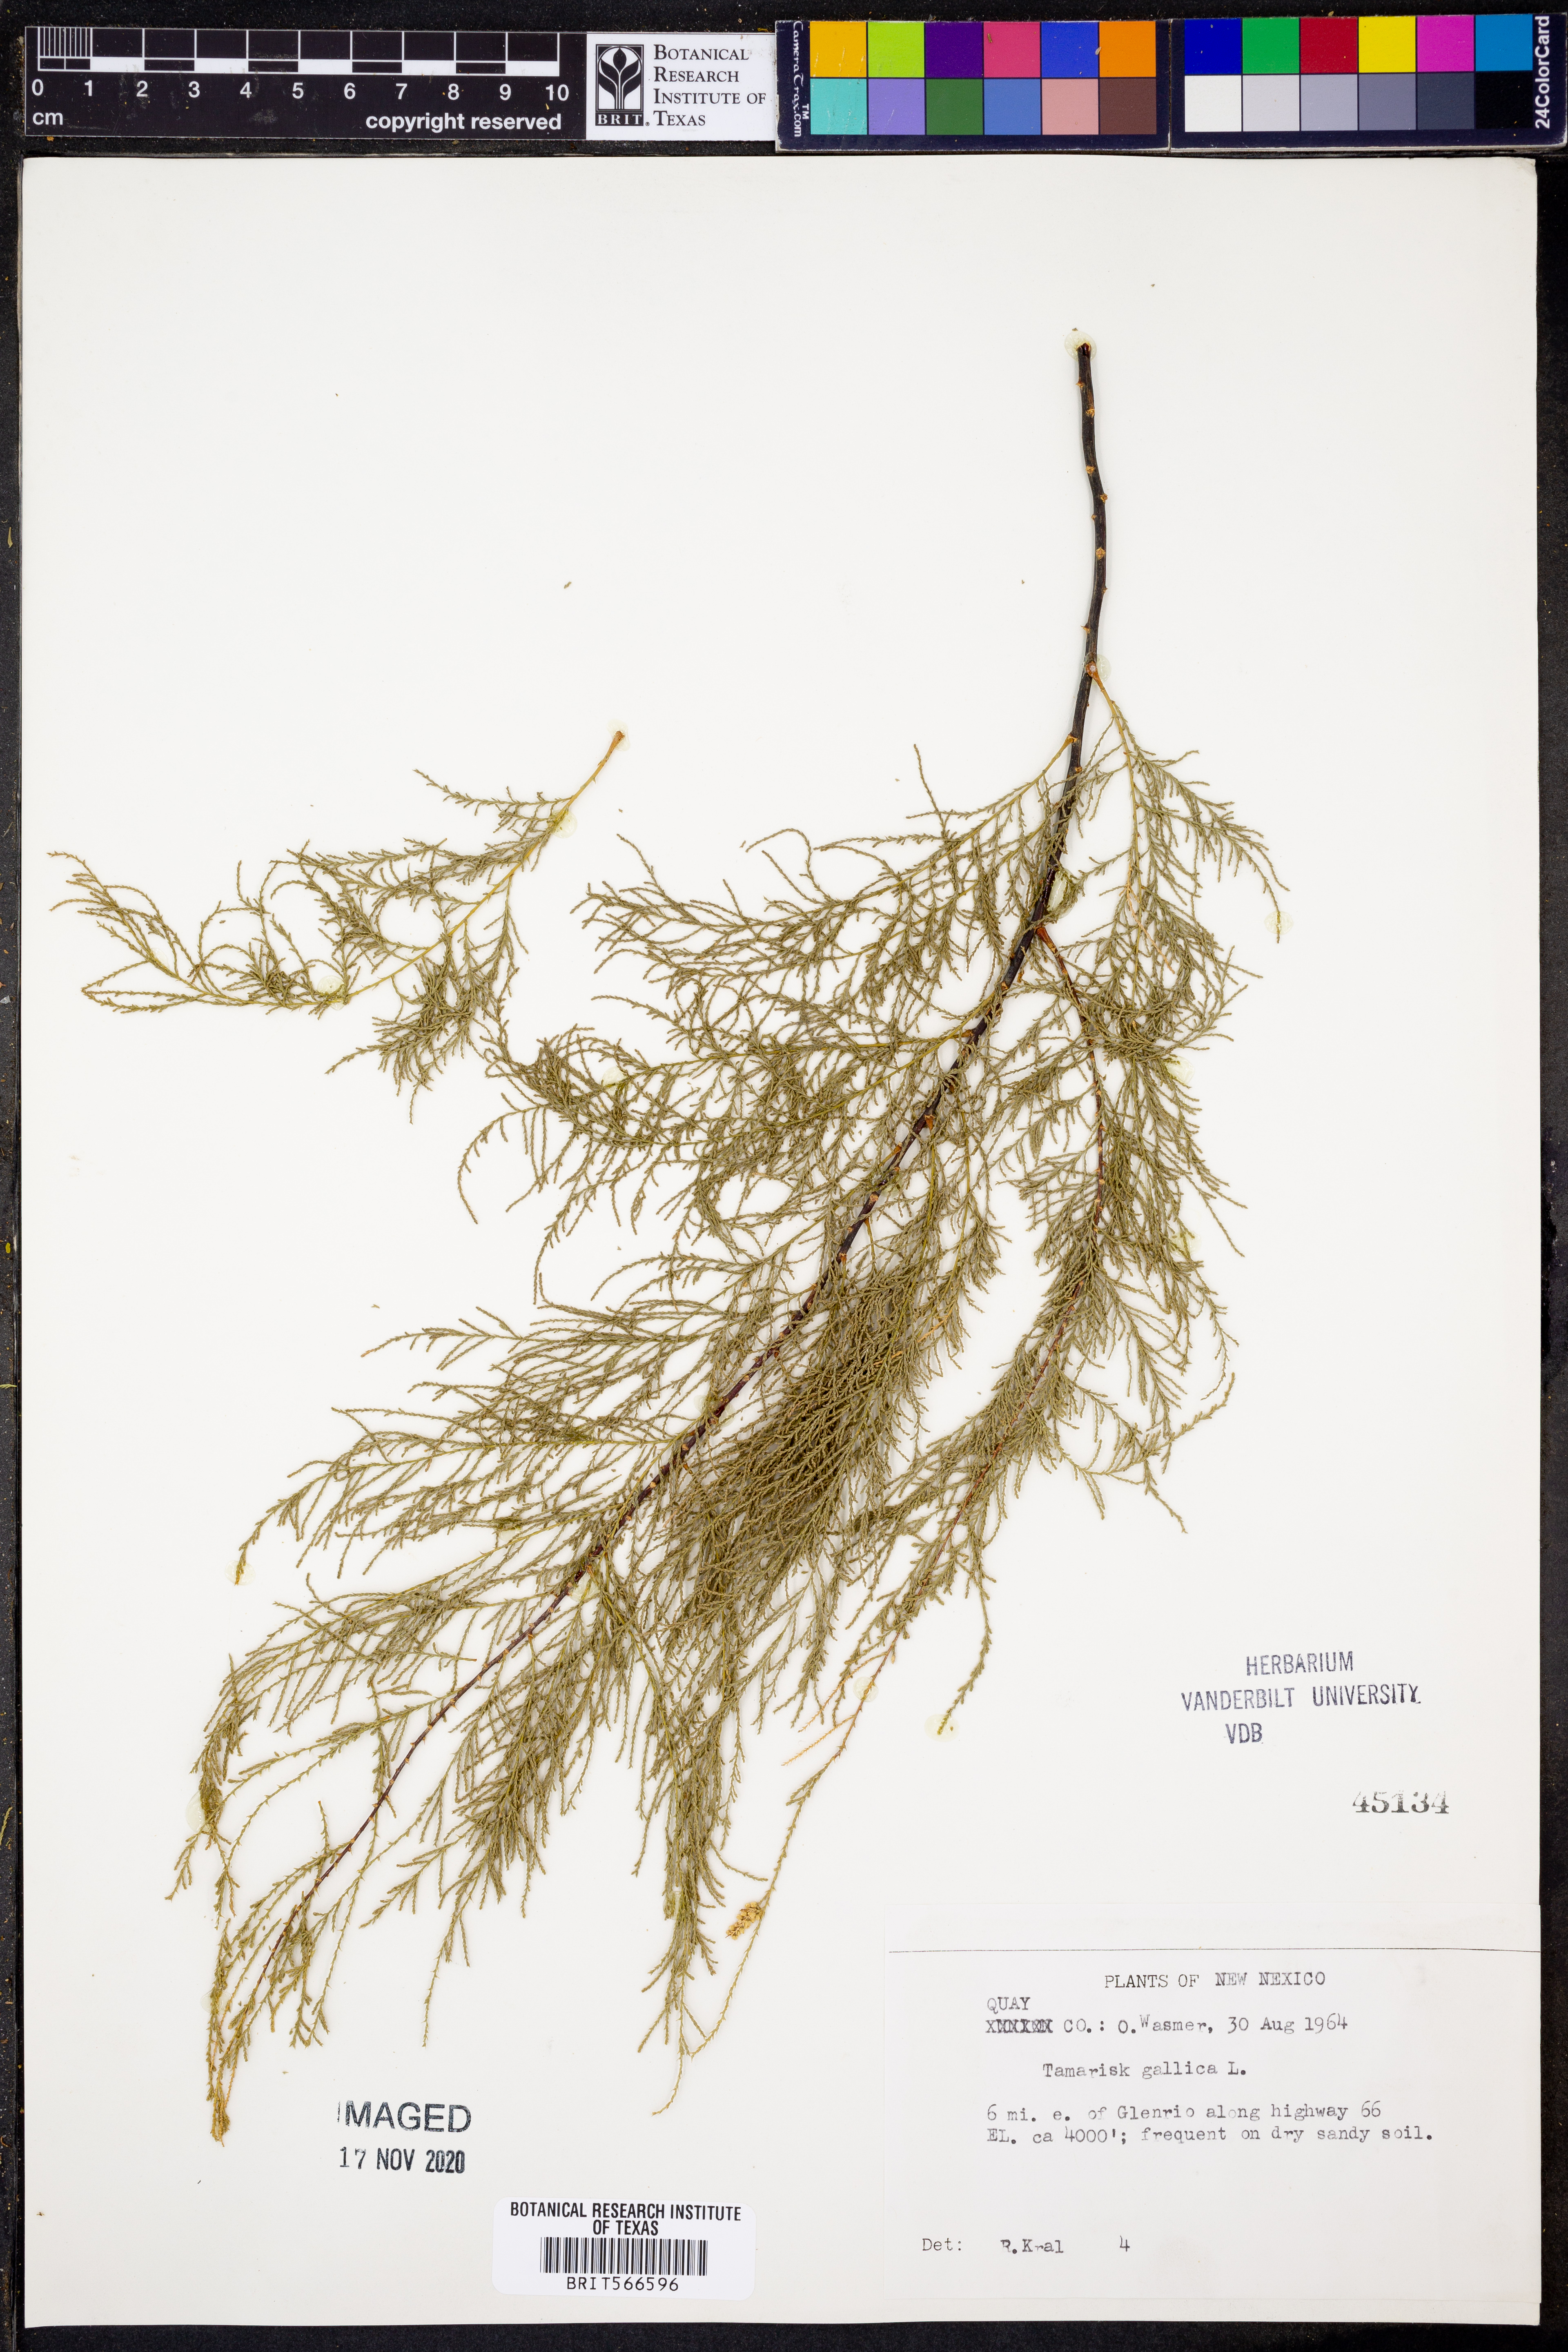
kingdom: Plantae
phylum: Tracheophyta
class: Magnoliopsida
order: Caryophyllales
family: Tamaricaceae
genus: Tamarix
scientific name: Tamarix gallica
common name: Tamarisk
